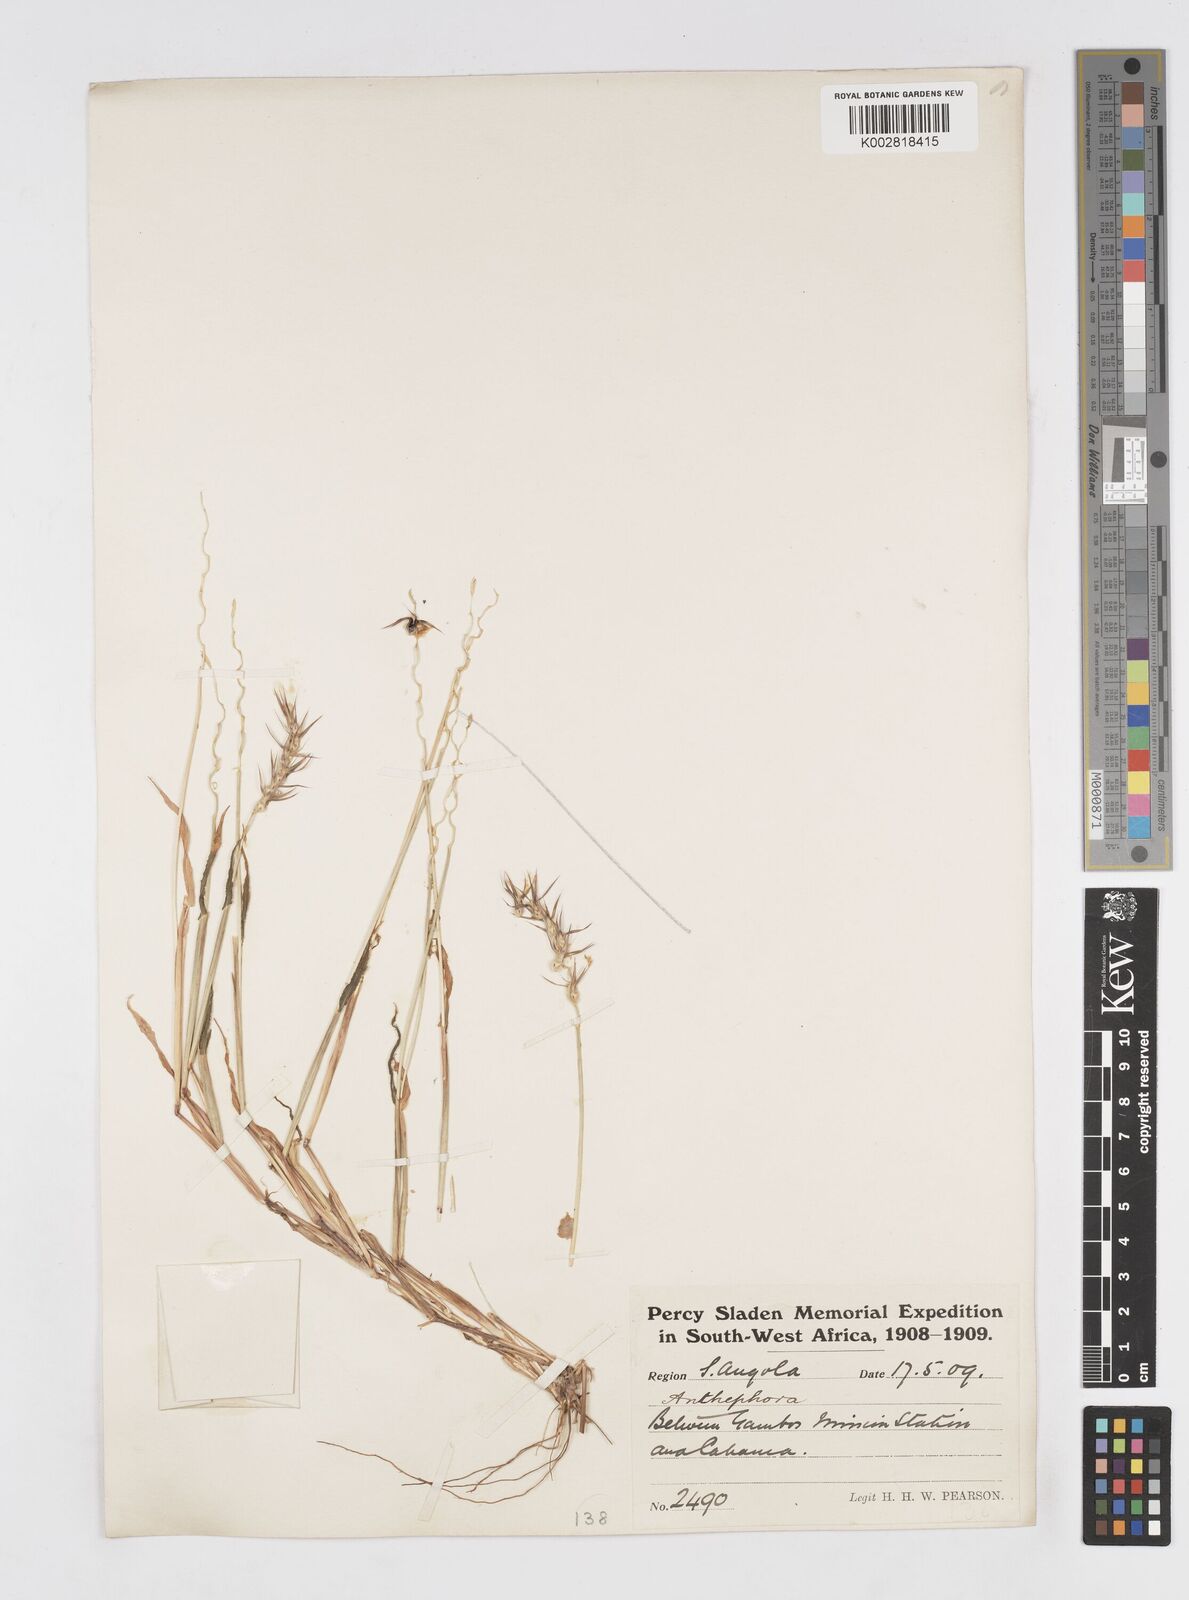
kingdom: Plantae
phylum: Tracheophyta
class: Liliopsida
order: Poales
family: Poaceae
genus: Anthephora
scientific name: Anthephora schinzii
